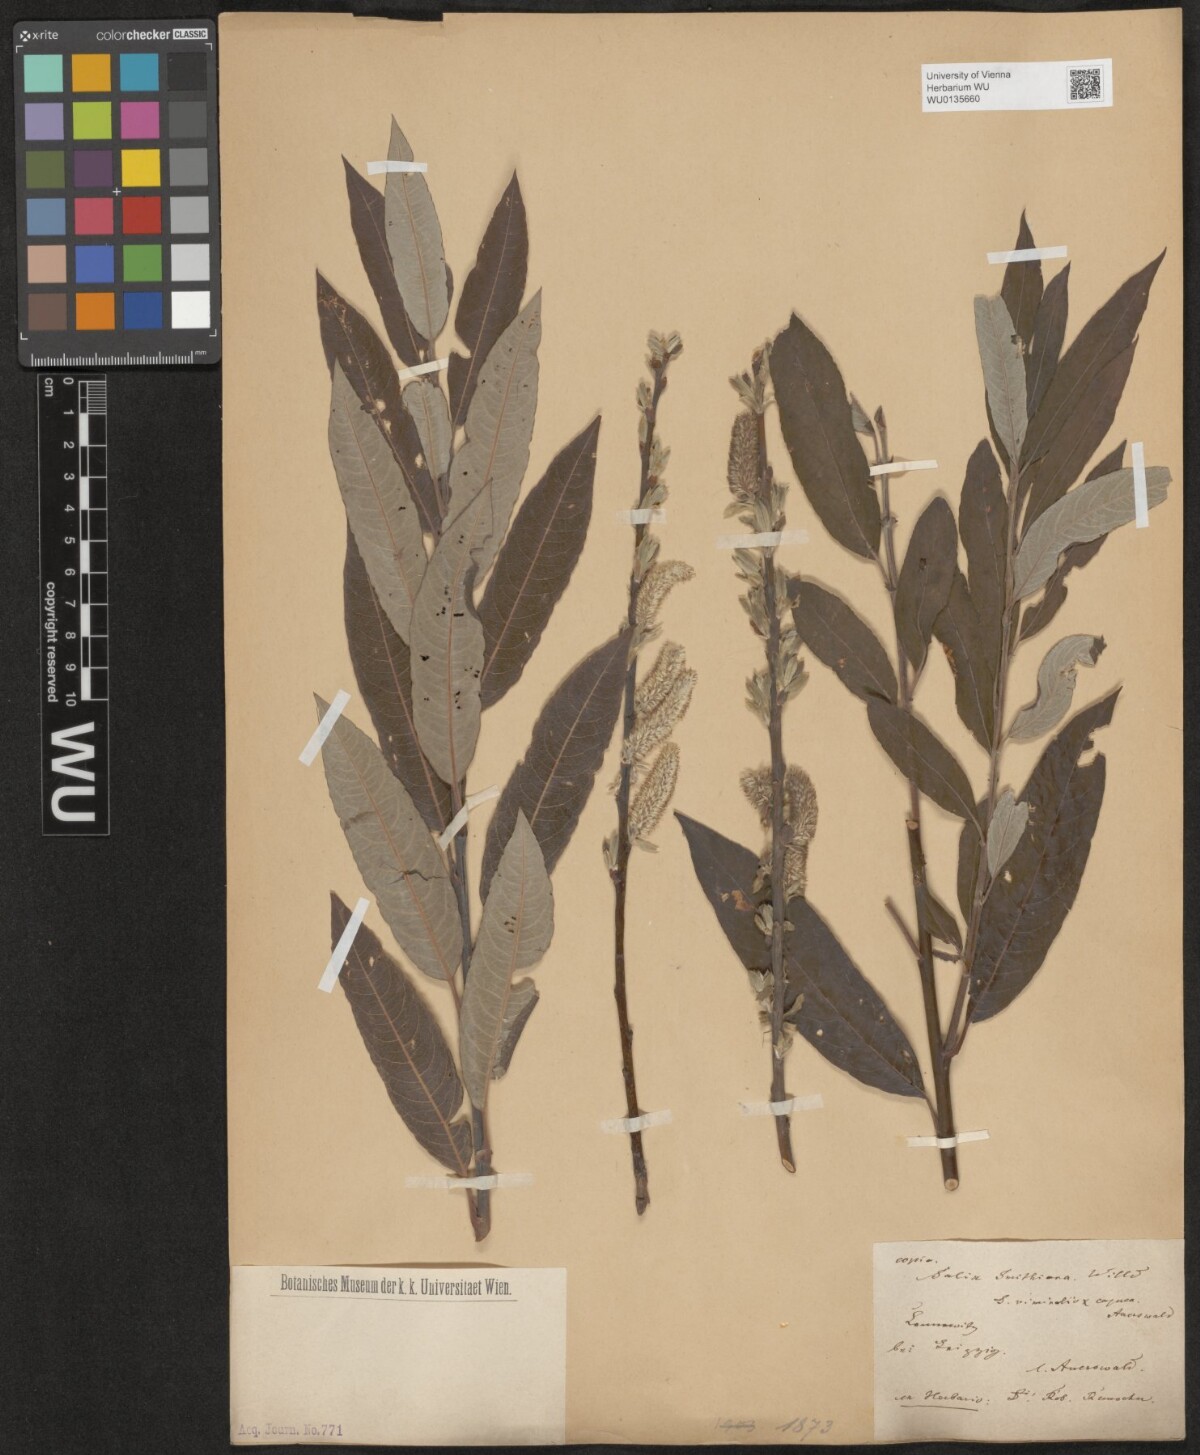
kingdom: Plantae
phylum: Tracheophyta
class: Magnoliopsida
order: Malpighiales
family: Salicaceae
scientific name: Salicaceae
